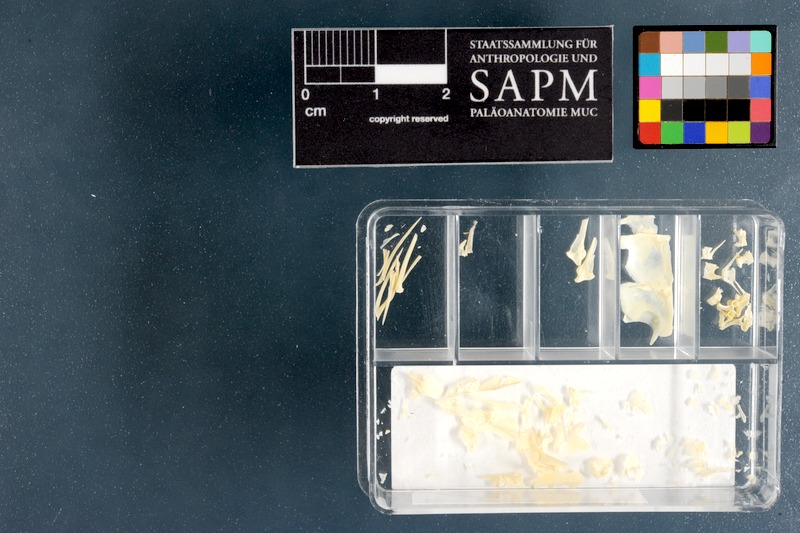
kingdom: Animalia
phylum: Chordata
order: Mugiliformes
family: Mugilidae
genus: Chelon
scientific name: Chelon tricuspidens
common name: Striped mullet
